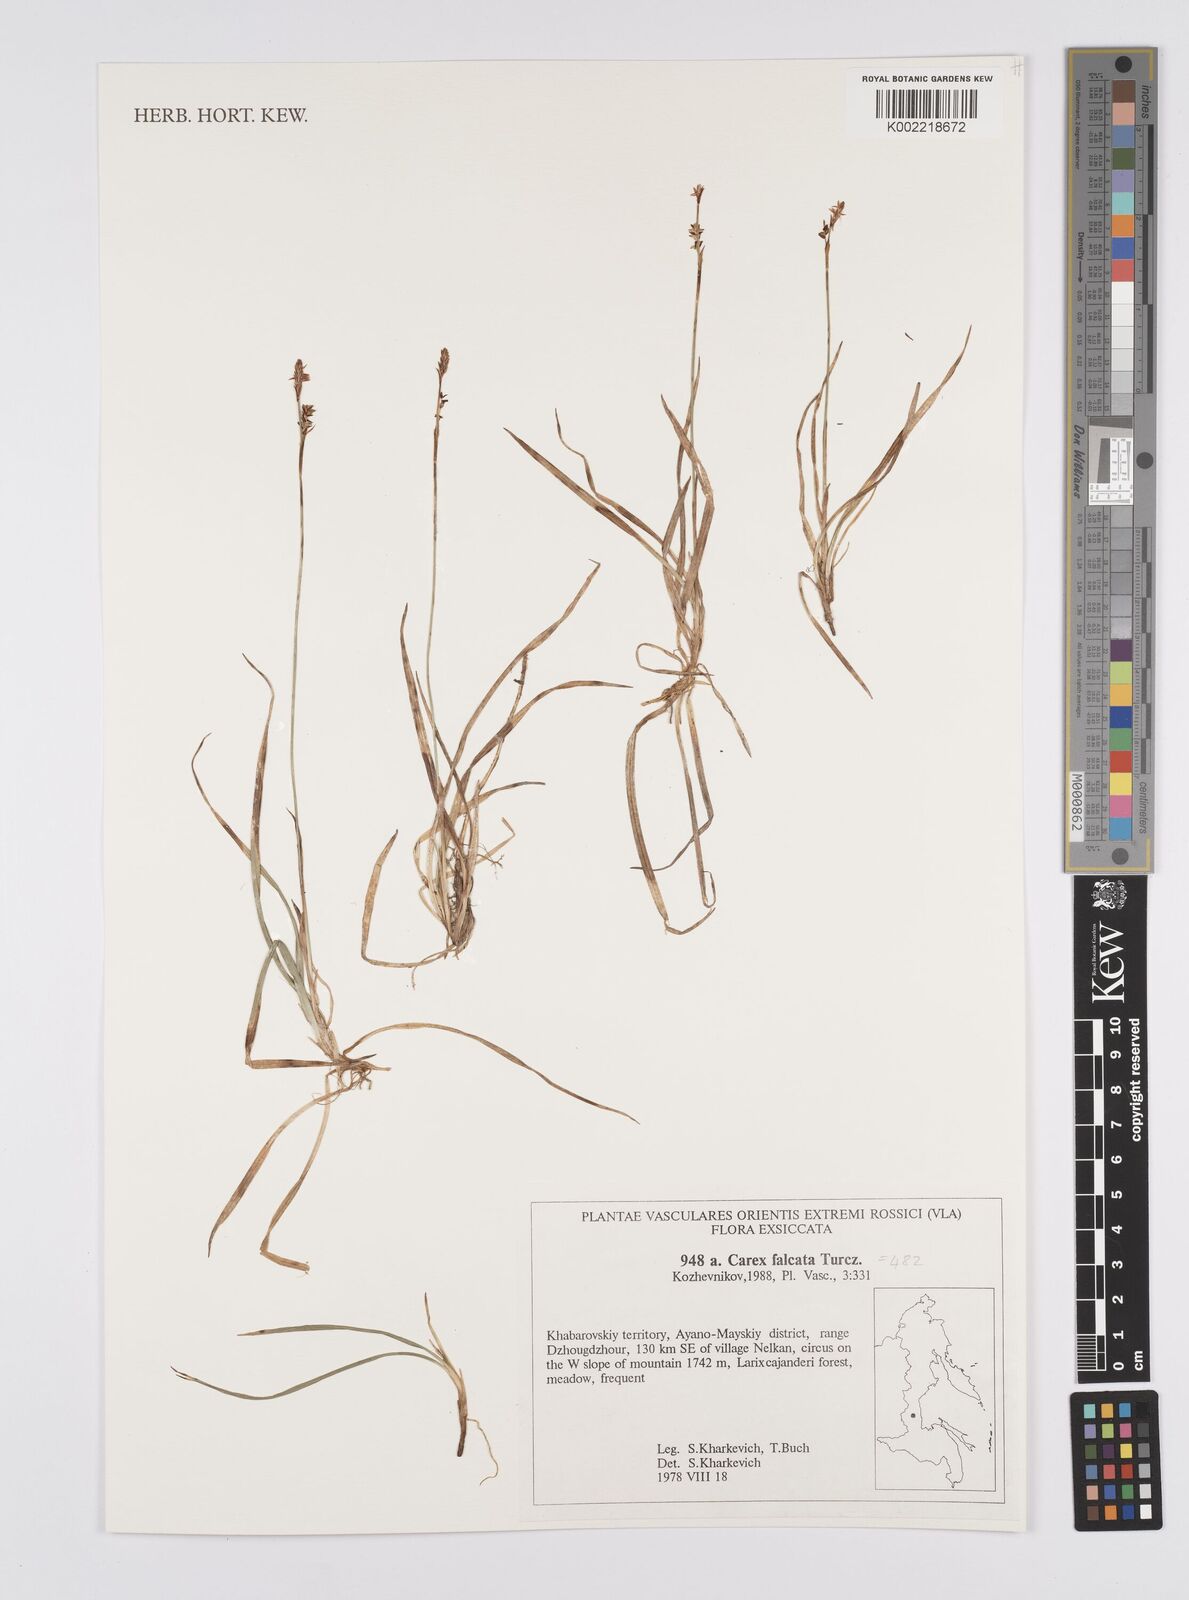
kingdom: Plantae
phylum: Tracheophyta
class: Liliopsida
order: Poales
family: Cyperaceae
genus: Carex
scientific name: Carex vaginata
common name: Sheathed sedge
